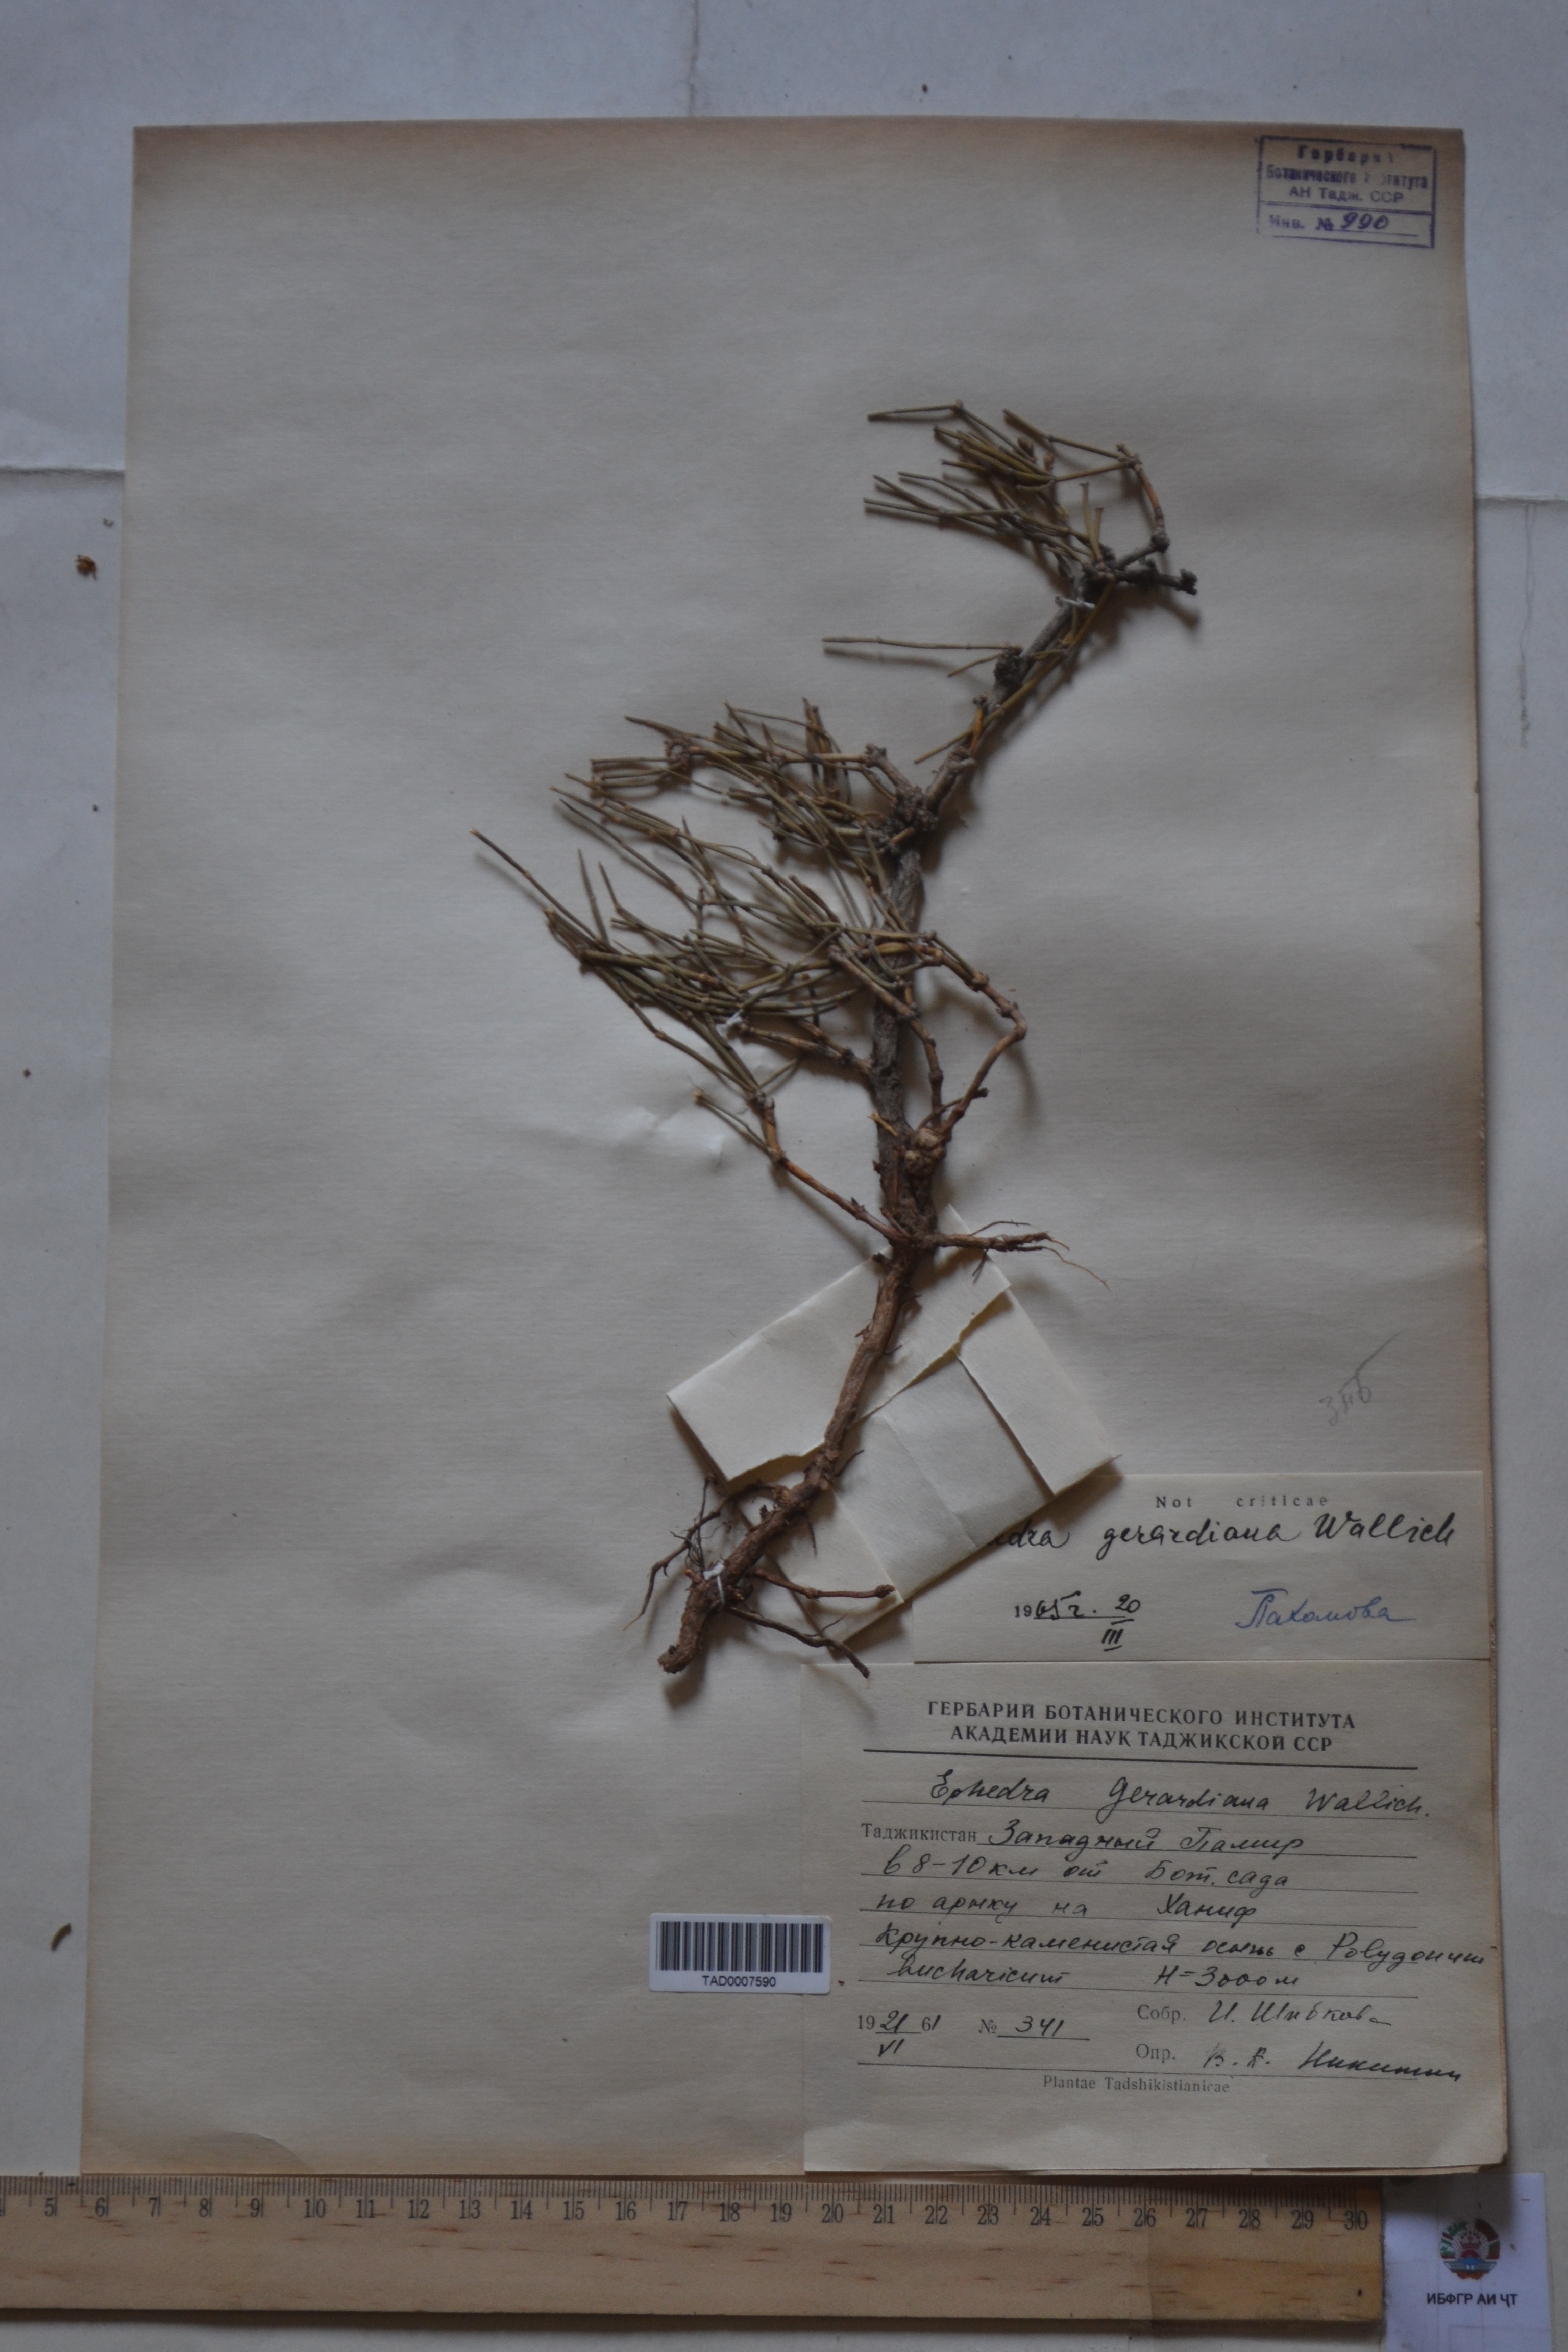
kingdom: Plantae
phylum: Tracheophyta
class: Gnetopsida
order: Ephedrales
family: Ephedraceae
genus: Ephedra
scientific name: Ephedra gerardiana
